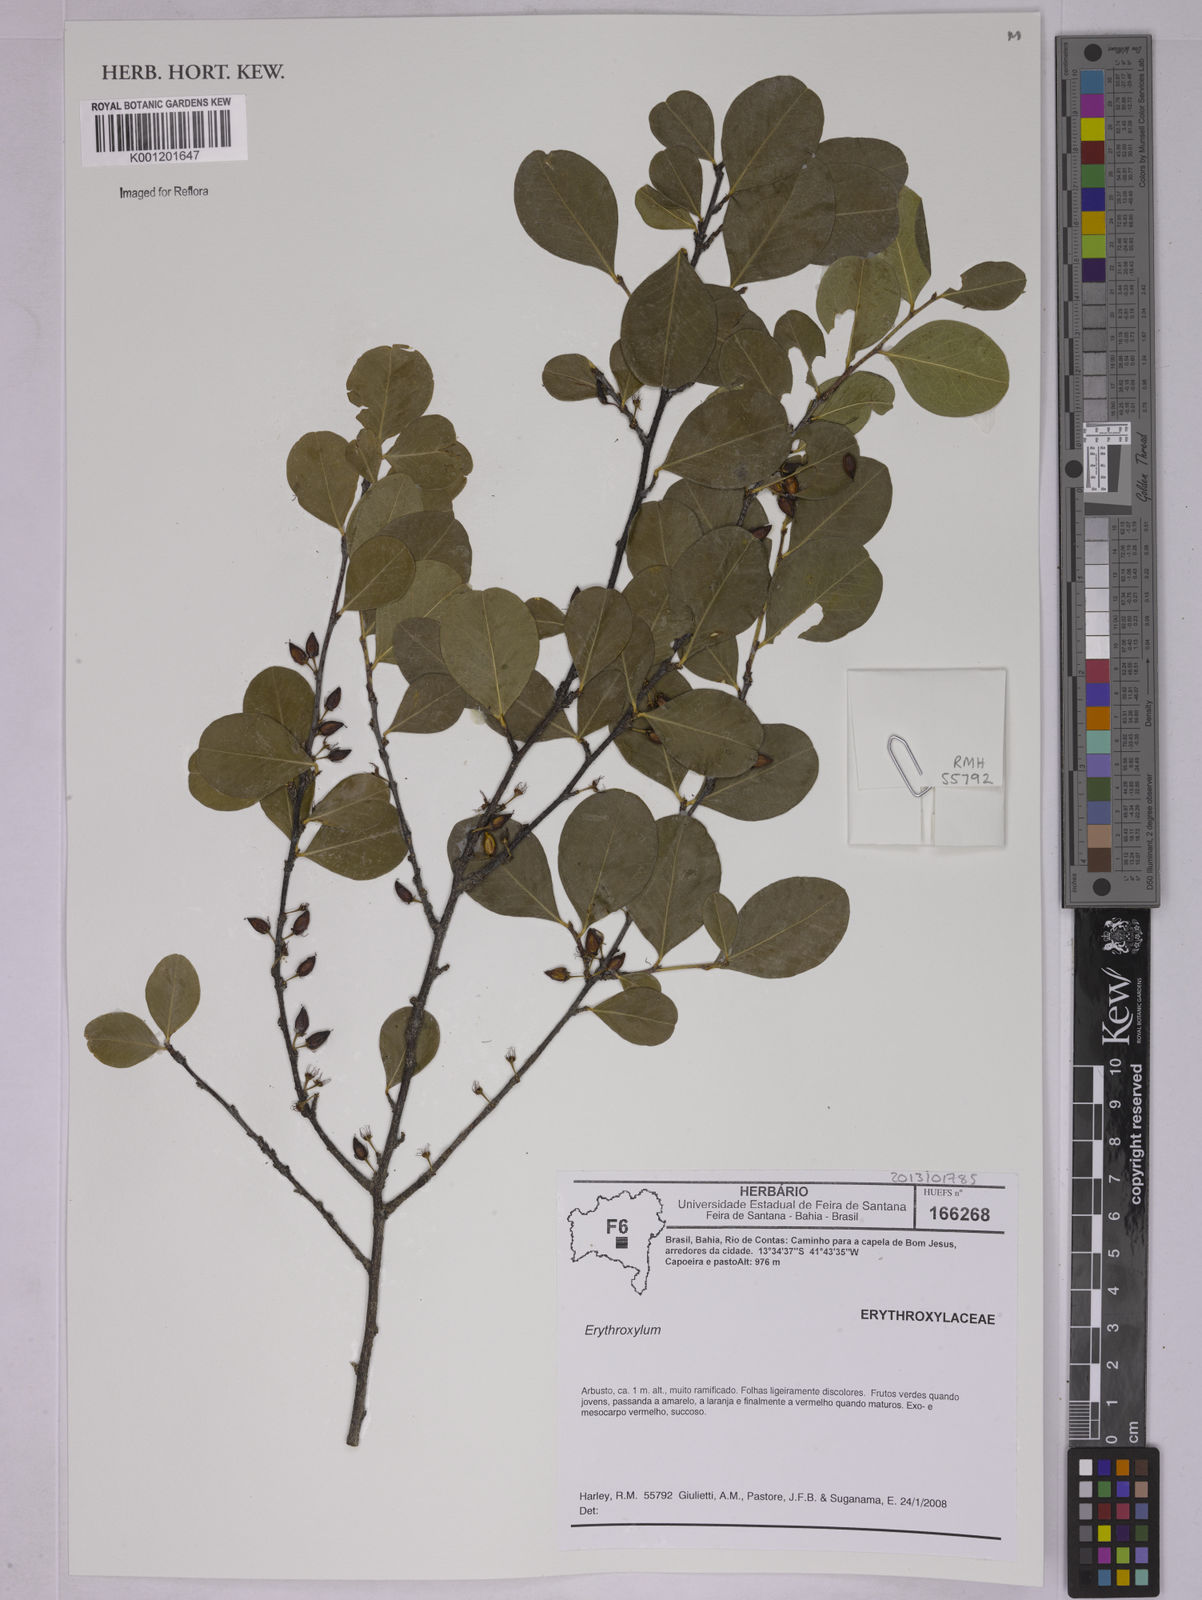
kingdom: Plantae
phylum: Tracheophyta
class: Magnoliopsida
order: Malpighiales
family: Erythroxylaceae
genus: Erythroxylum
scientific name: Erythroxylum
